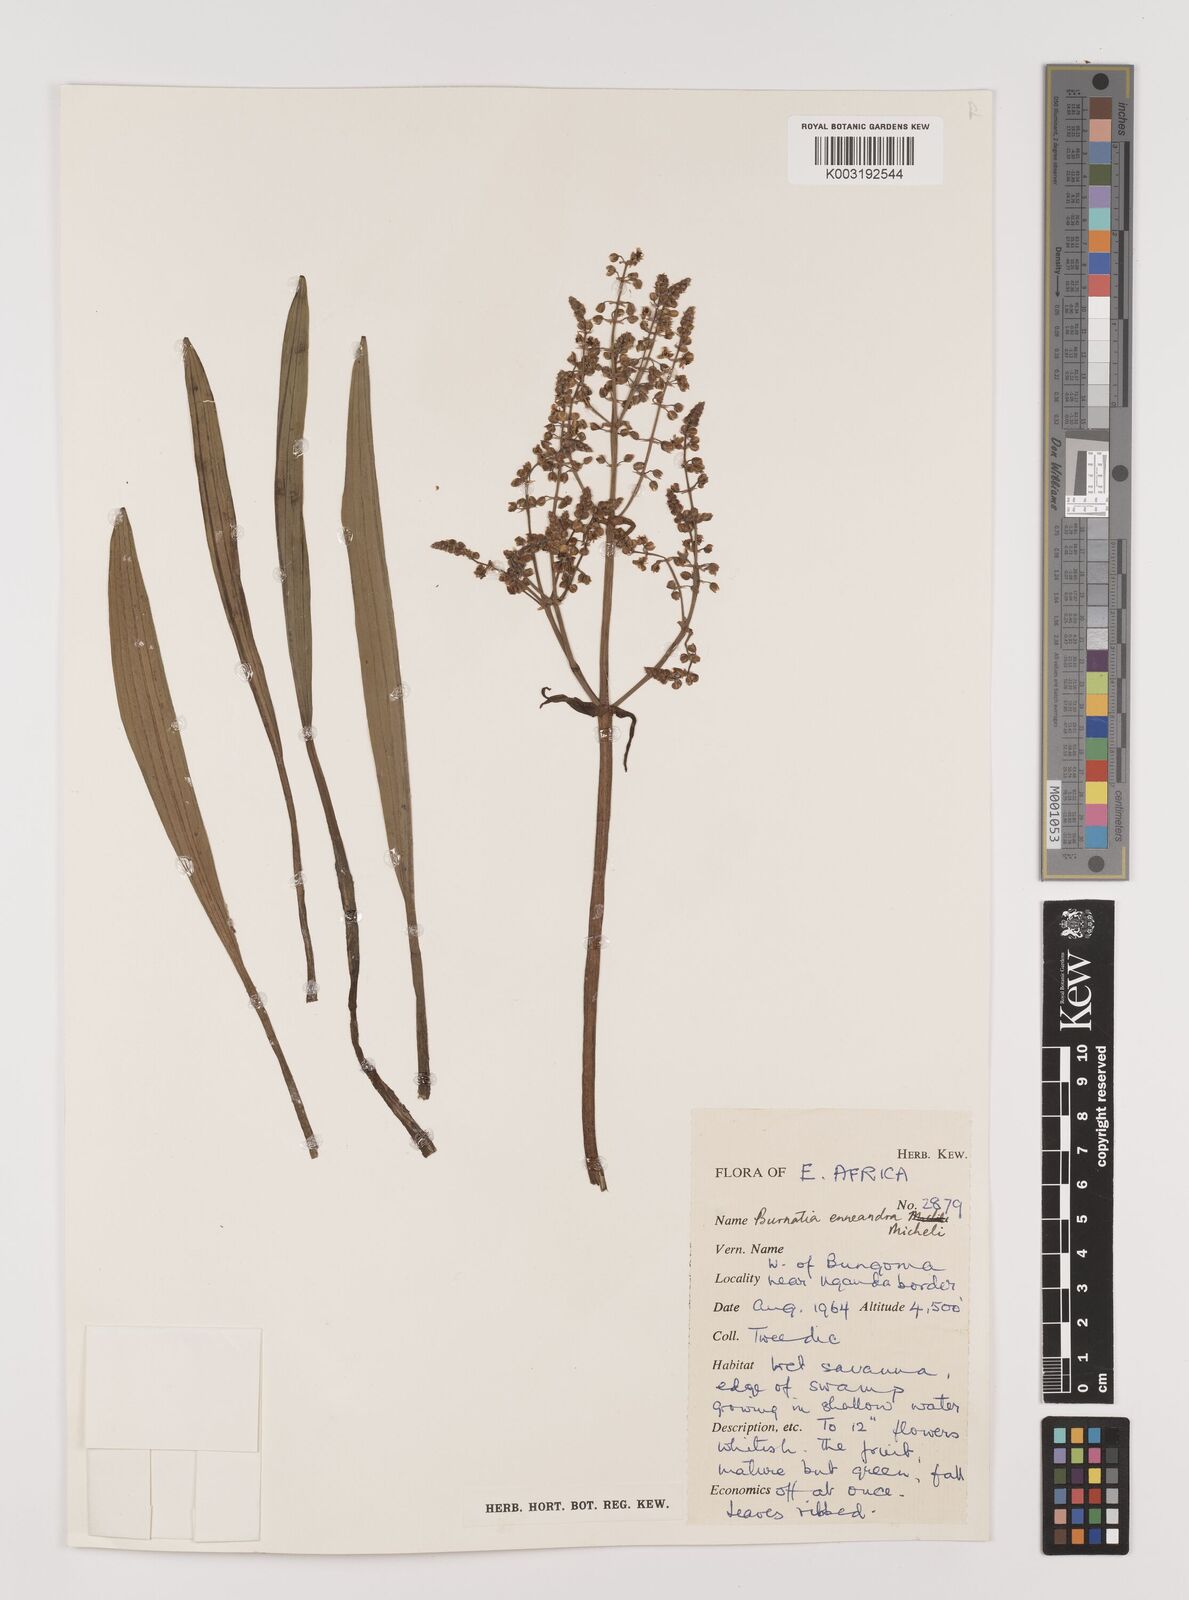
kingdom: Plantae
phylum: Tracheophyta
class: Liliopsida
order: Alismatales
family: Alismataceae
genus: Burnatia
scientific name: Burnatia enneandra
